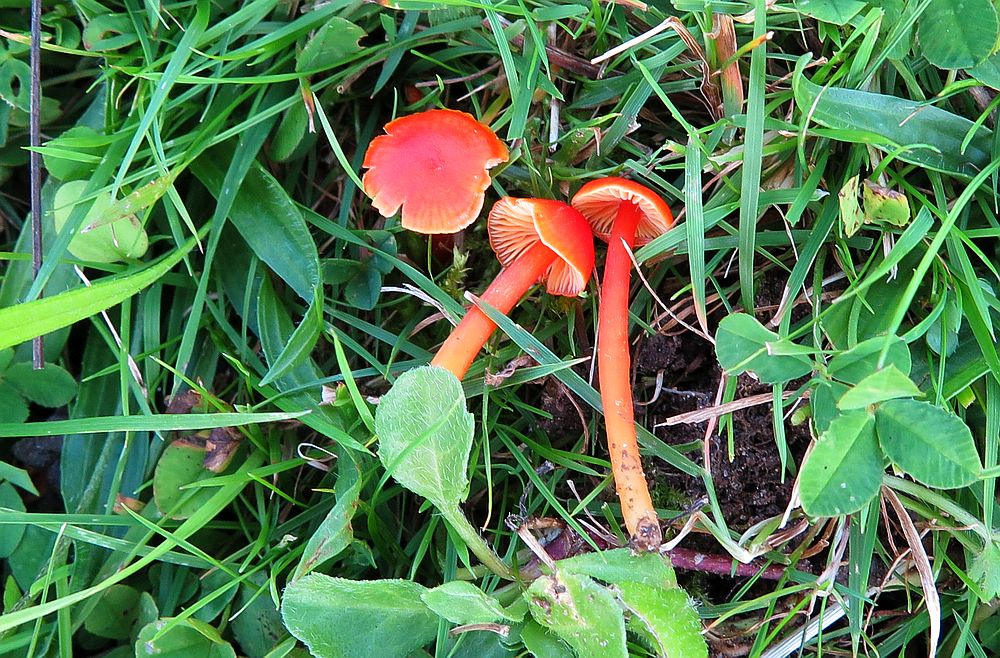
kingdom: Fungi
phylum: Basidiomycota
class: Agaricomycetes
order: Agaricales
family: Hygrophoraceae
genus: Hygrocybe
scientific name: Hygrocybe subpapillata
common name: papil-vokshat
